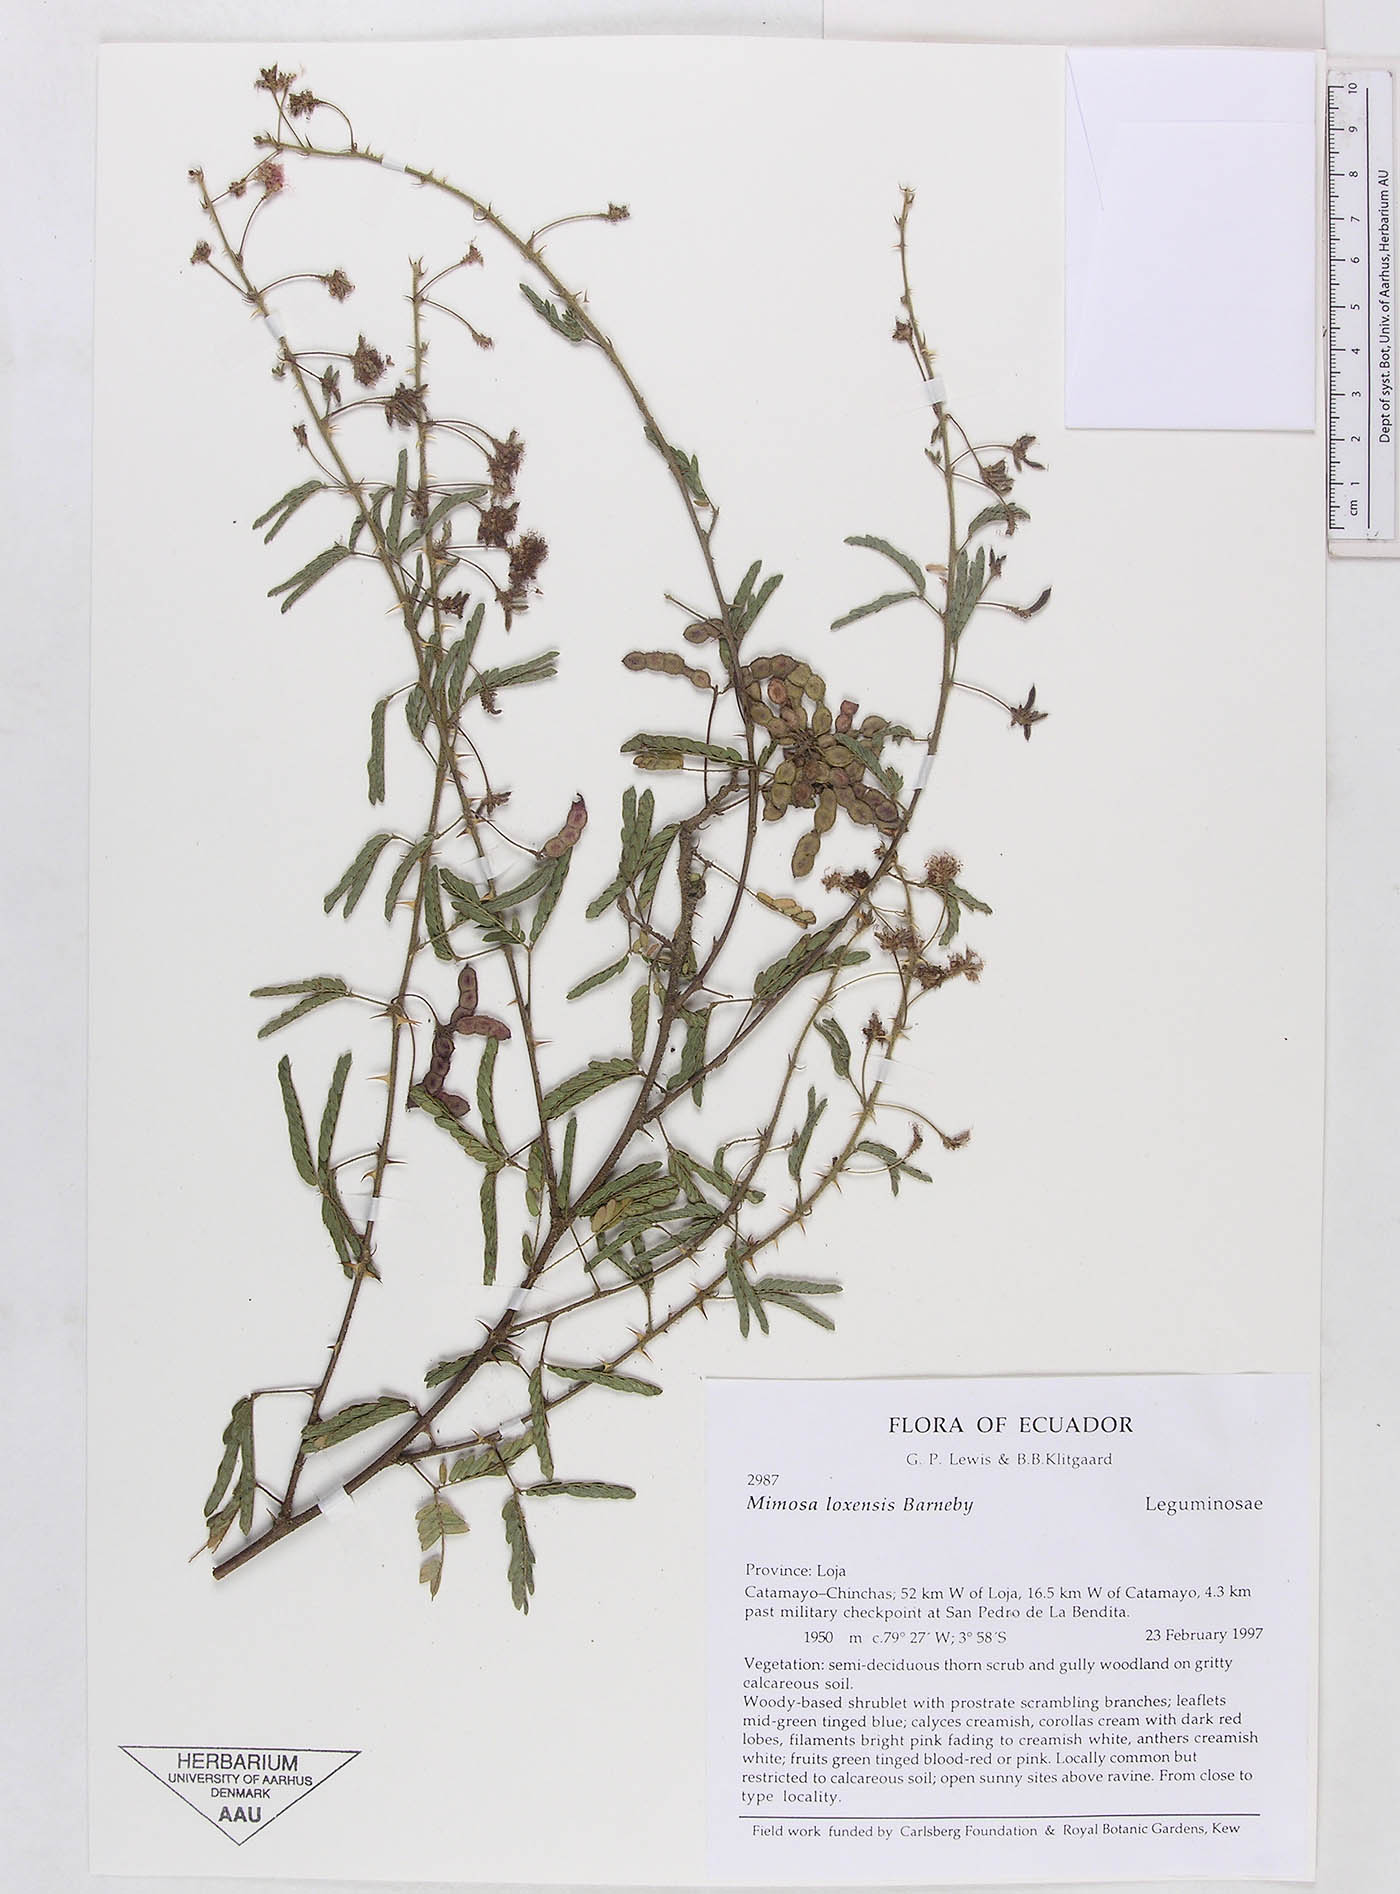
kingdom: Plantae
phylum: Tracheophyta
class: Magnoliopsida
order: Fabales
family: Fabaceae
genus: Mimosa
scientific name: Mimosa loxensis
